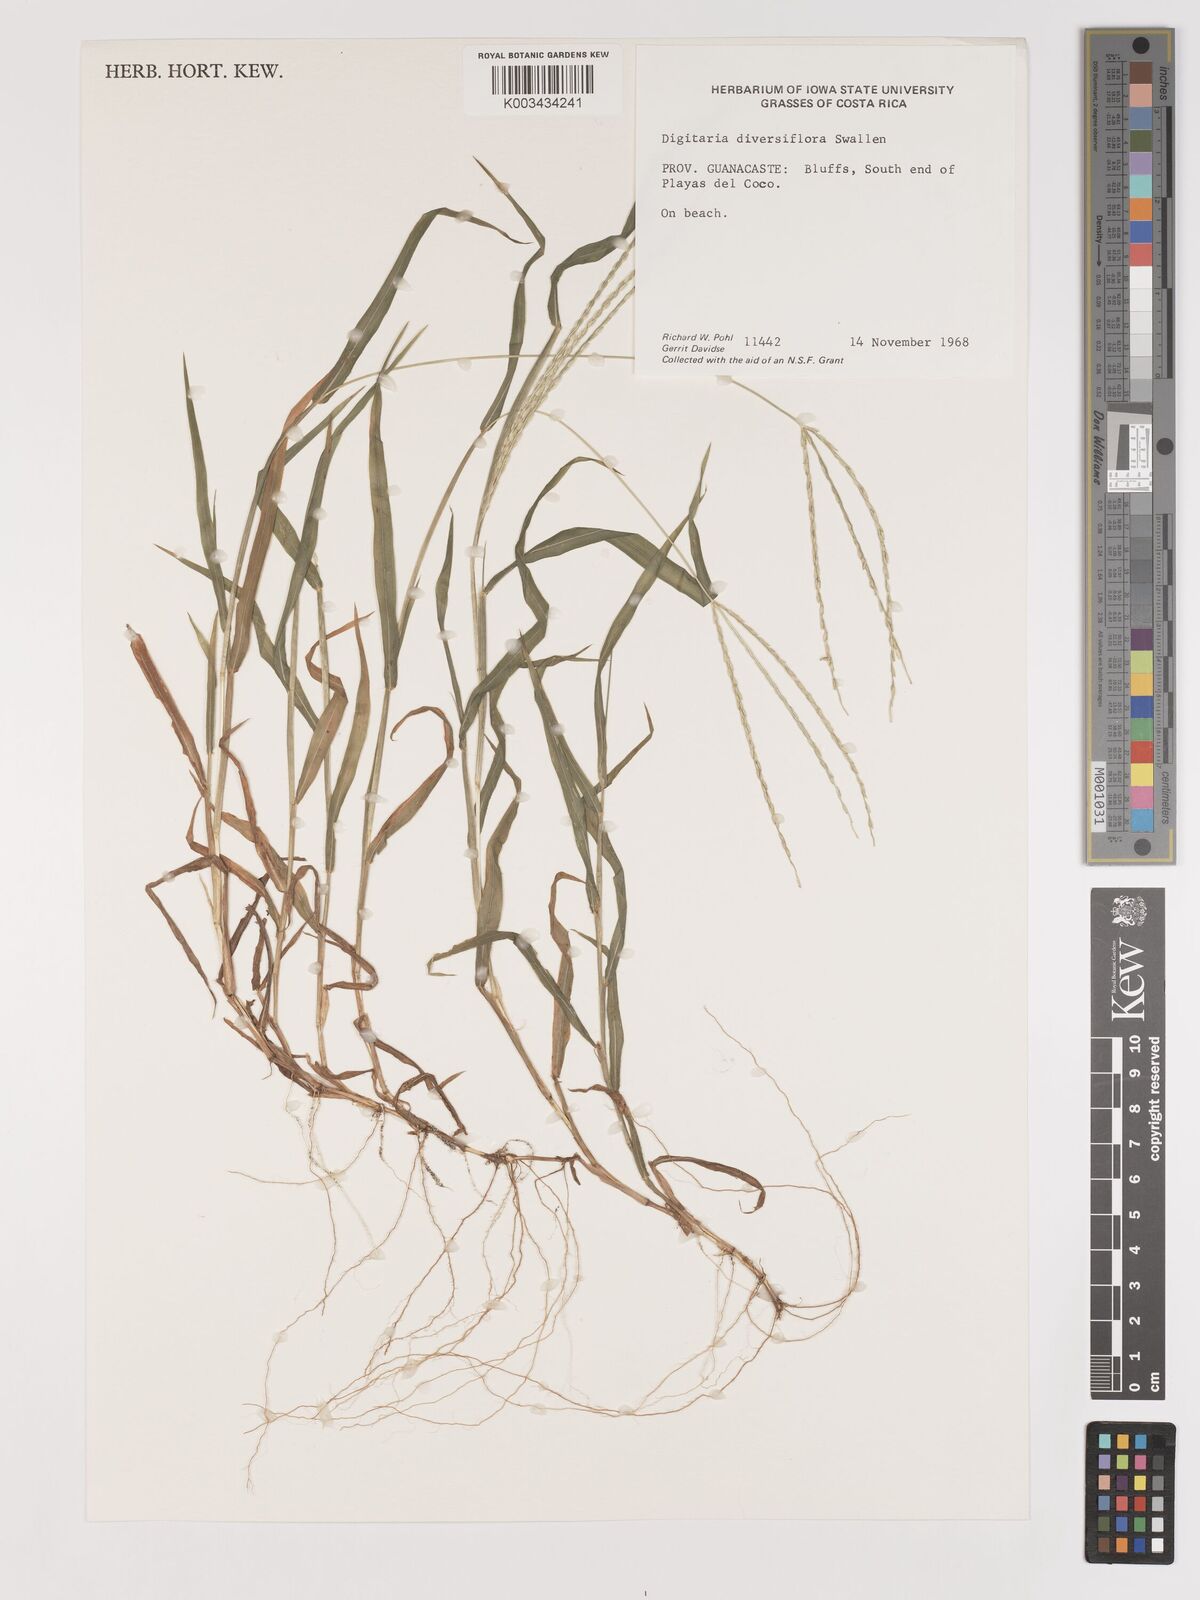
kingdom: Plantae
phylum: Tracheophyta
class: Liliopsida
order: Poales
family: Poaceae
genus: Digitaria
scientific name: Digitaria bicornis
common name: Asian crabgrass
